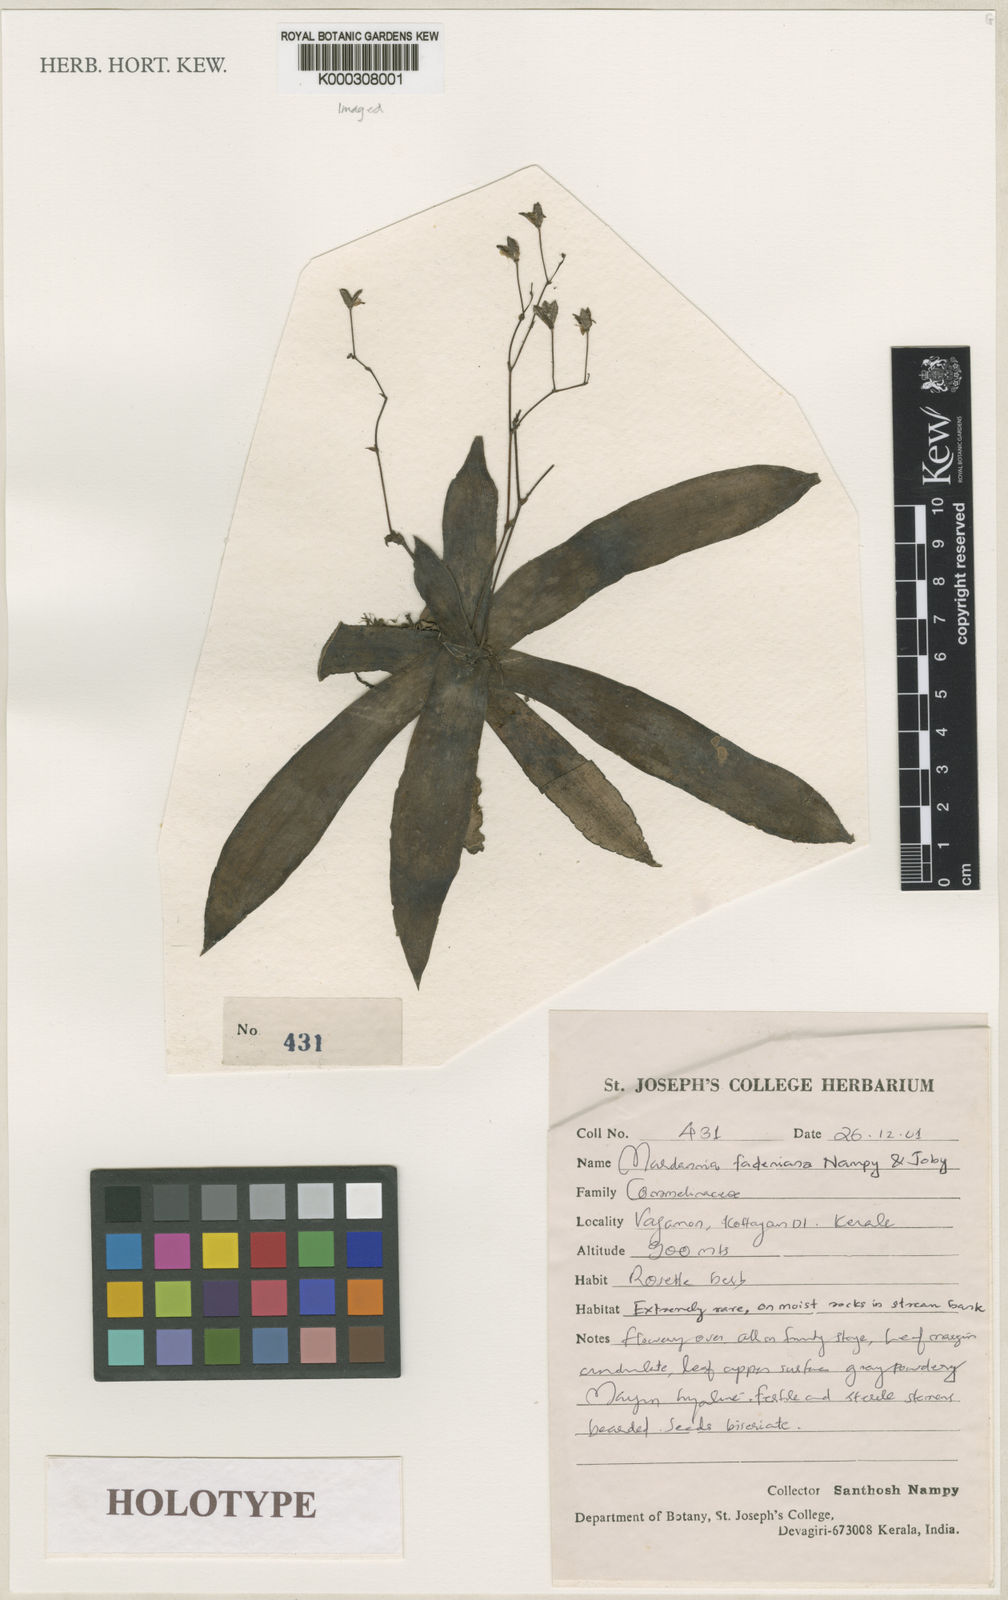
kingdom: Plantae
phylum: Tracheophyta
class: Liliopsida
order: Commelinales
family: Commelinaceae
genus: Murdannia
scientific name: Murdannia fadeniana
